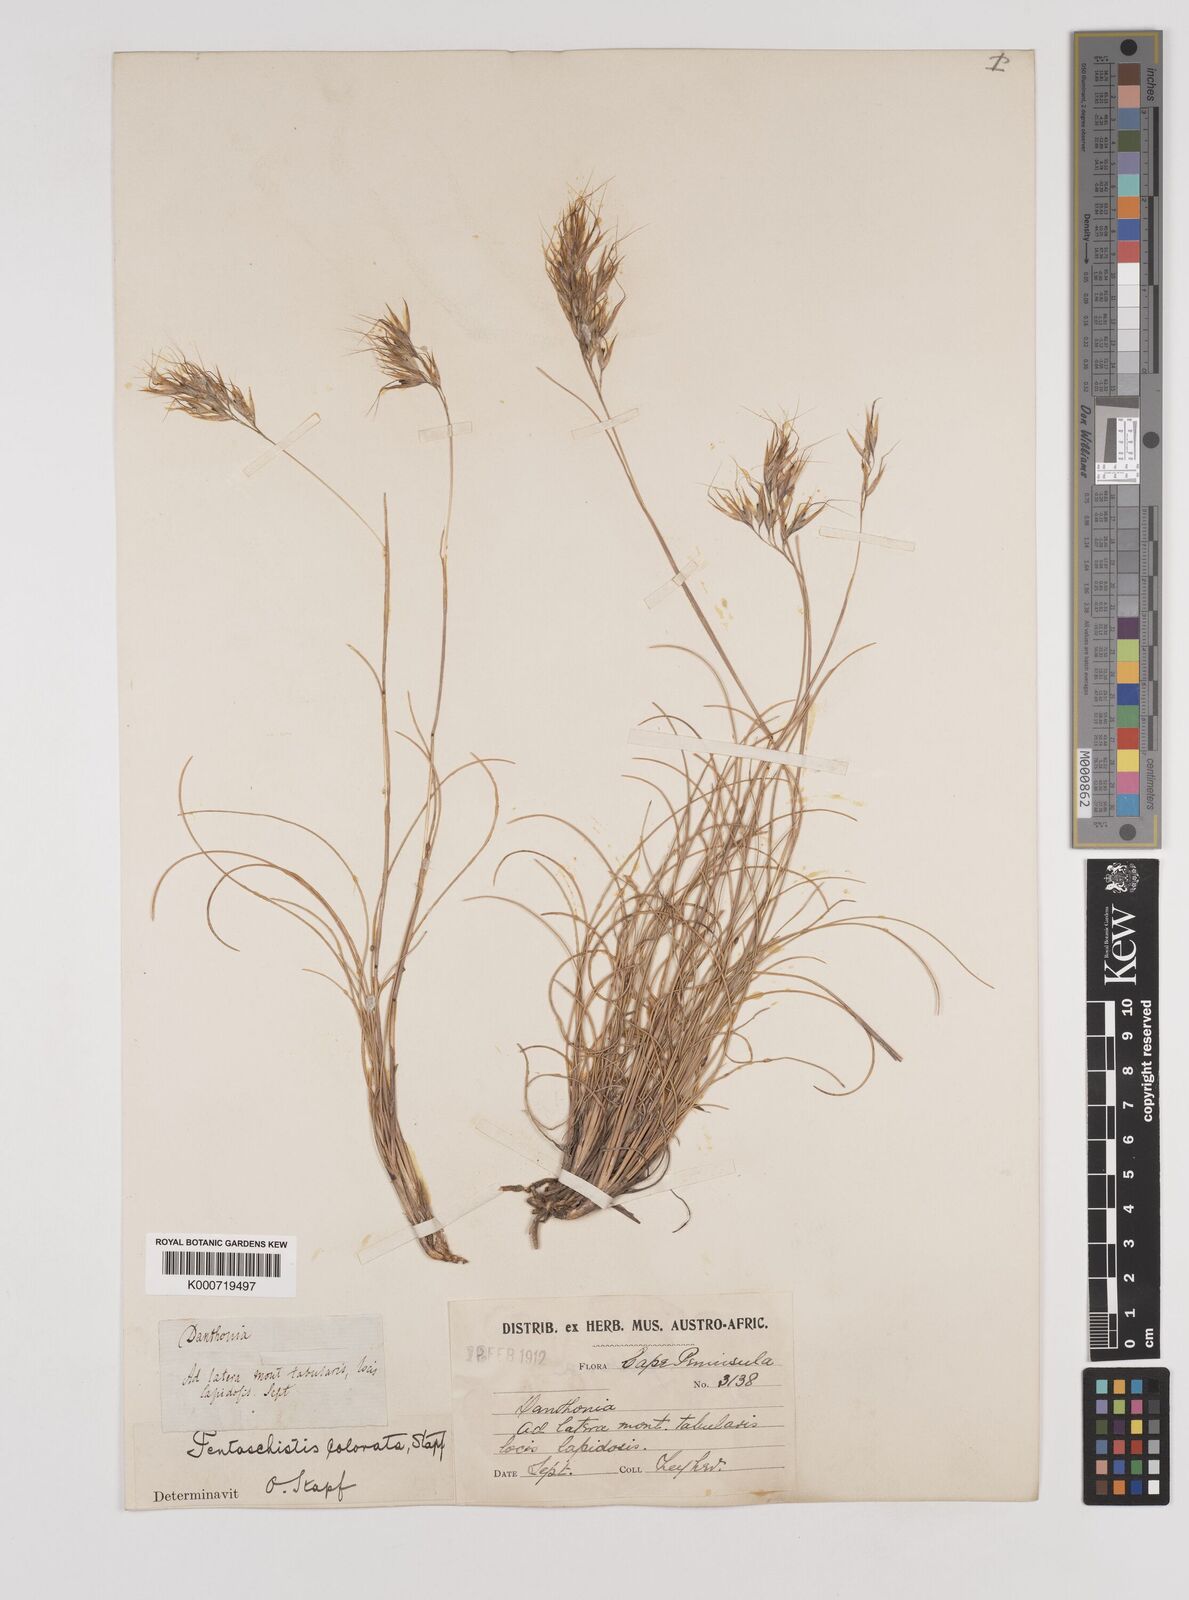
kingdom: Plantae
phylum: Tracheophyta
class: Liliopsida
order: Poales
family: Poaceae
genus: Pentameris
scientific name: Pentameris colorata
